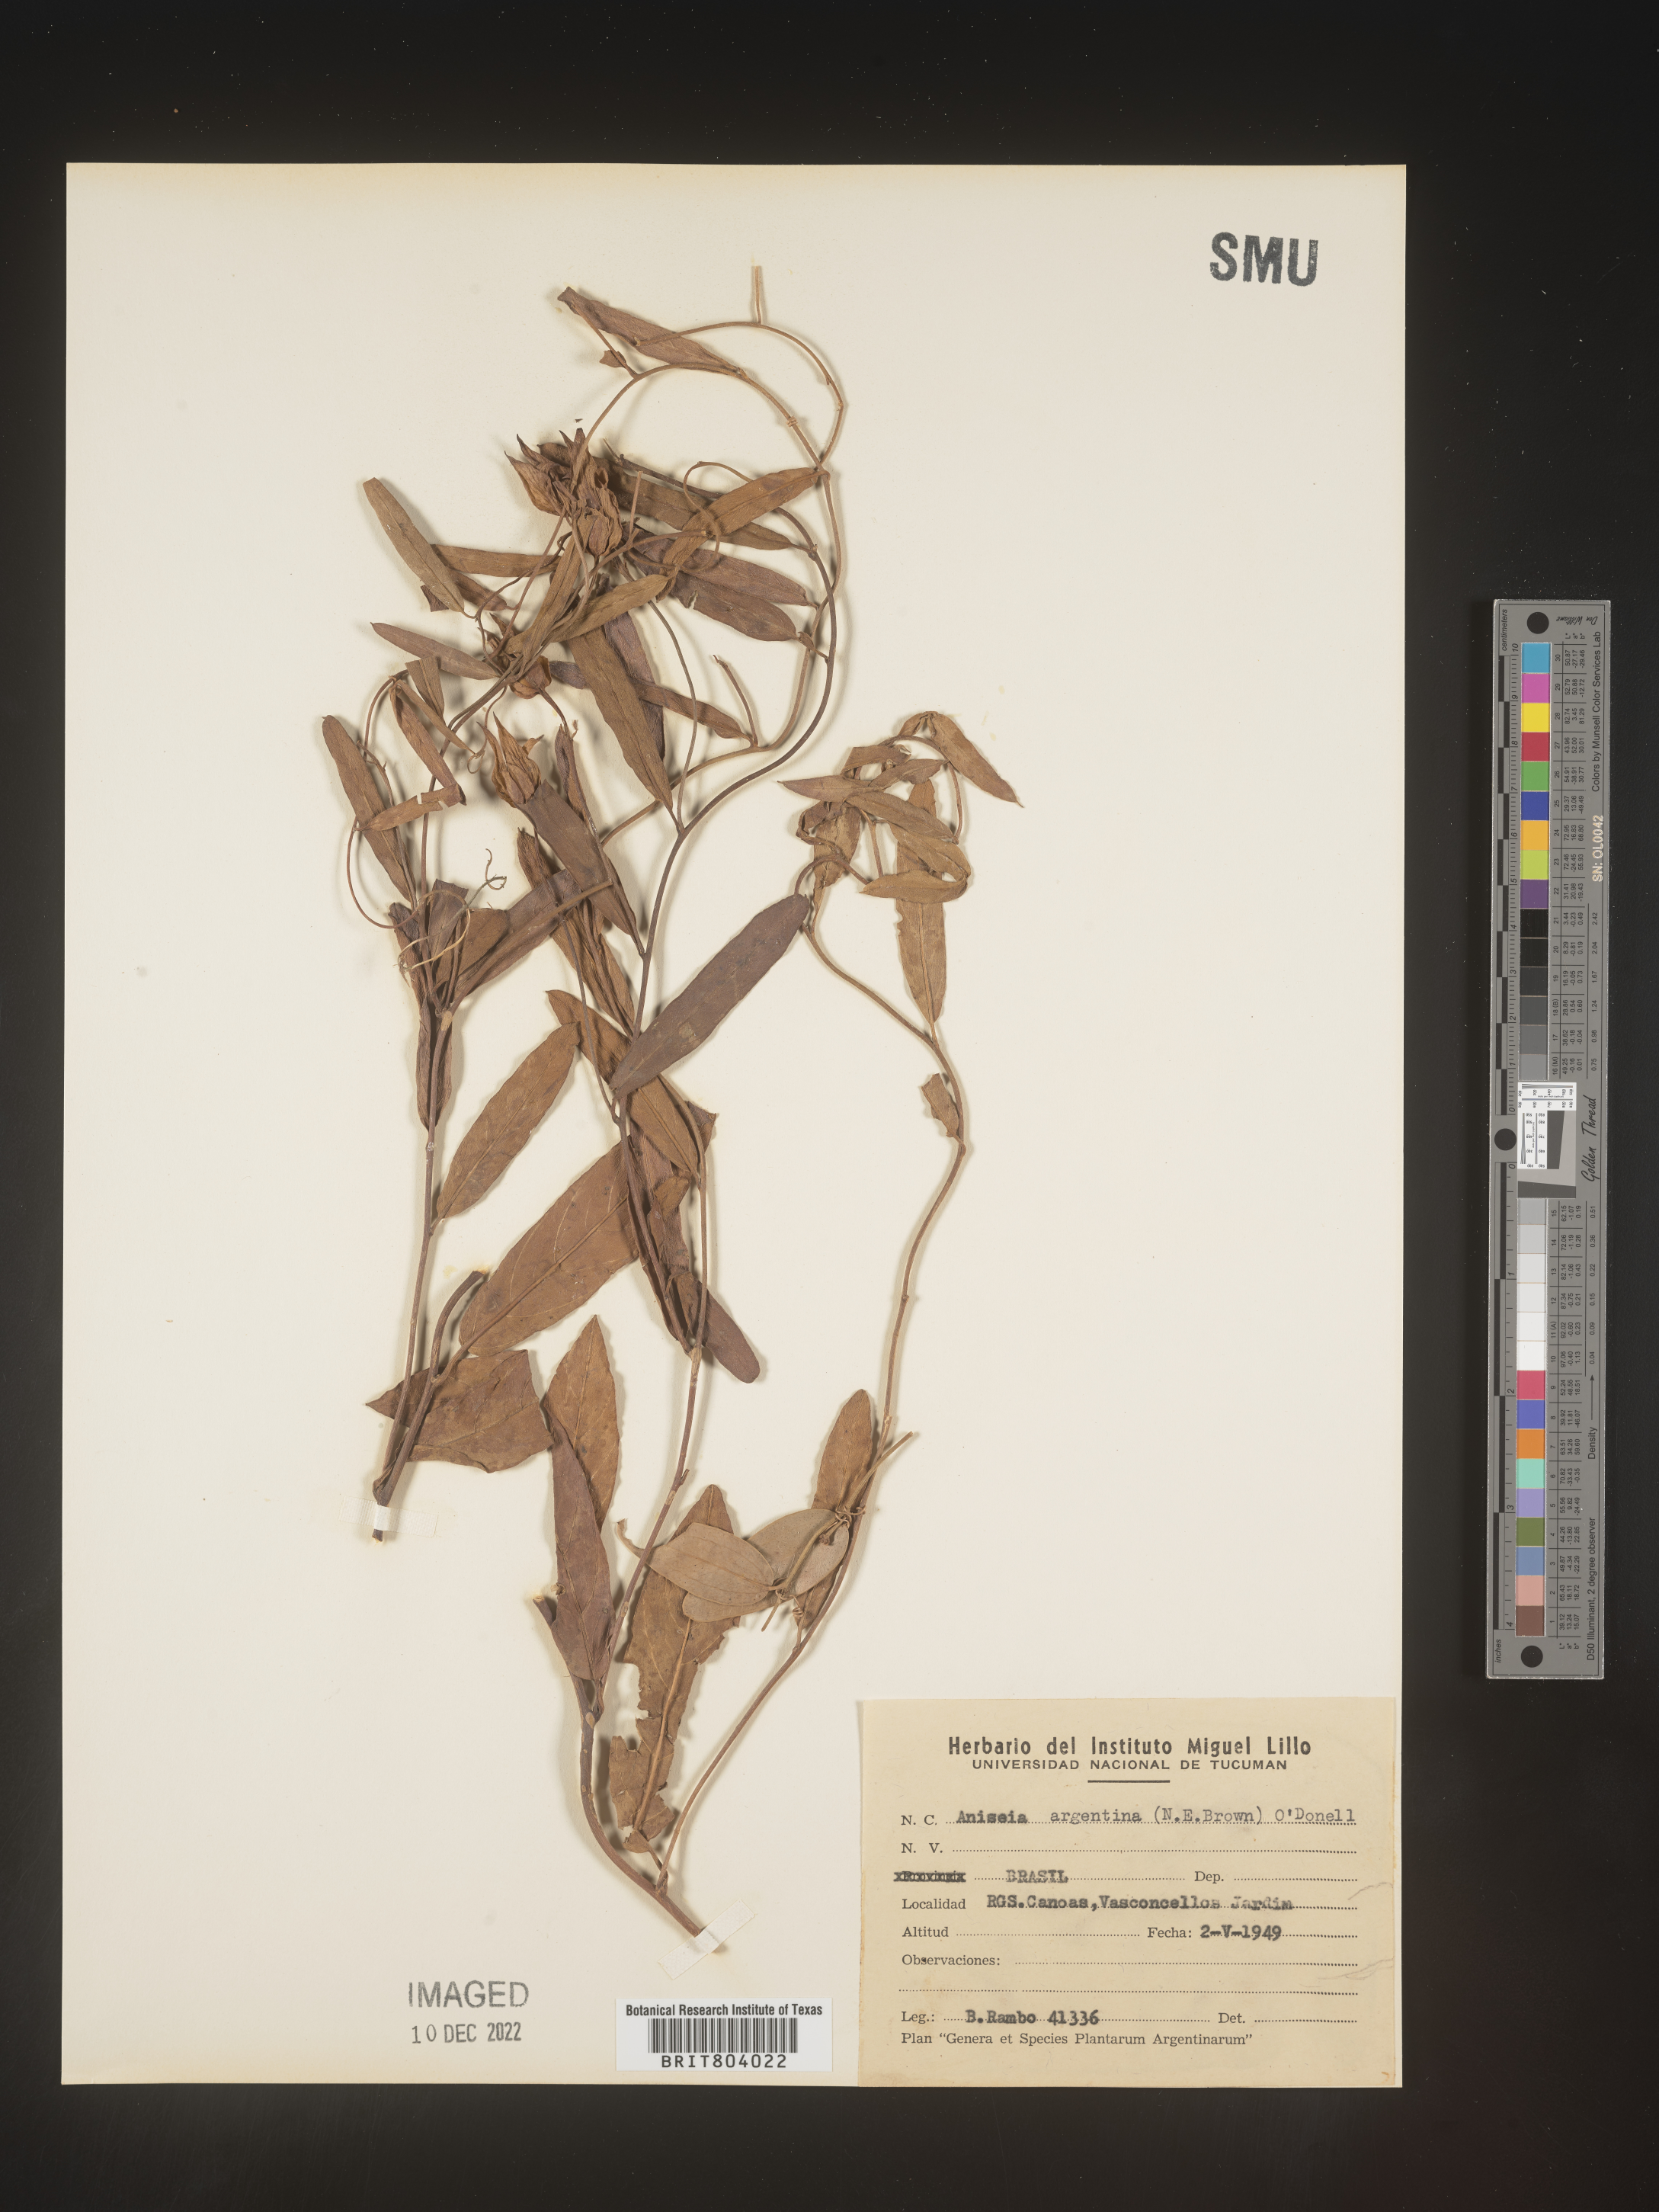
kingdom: Plantae
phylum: Tracheophyta
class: Magnoliopsida
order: Solanales
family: Convolvulaceae
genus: Aniseia
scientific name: Aniseia
